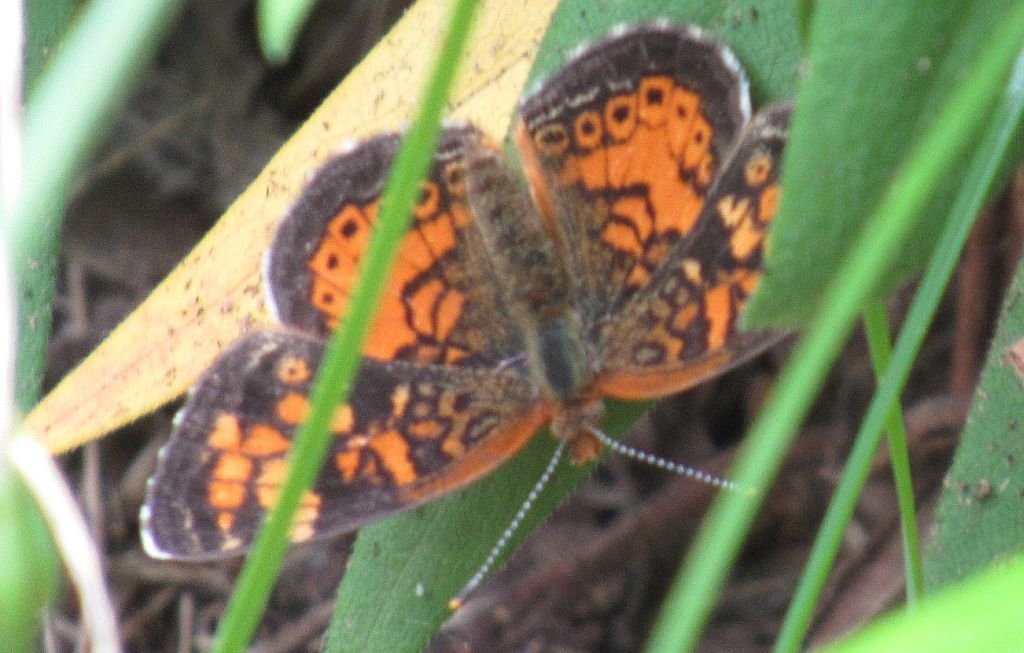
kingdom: Animalia
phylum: Arthropoda
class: Insecta
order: Lepidoptera
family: Nymphalidae
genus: Phyciodes
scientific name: Phyciodes tharos
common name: Northern Crescent
